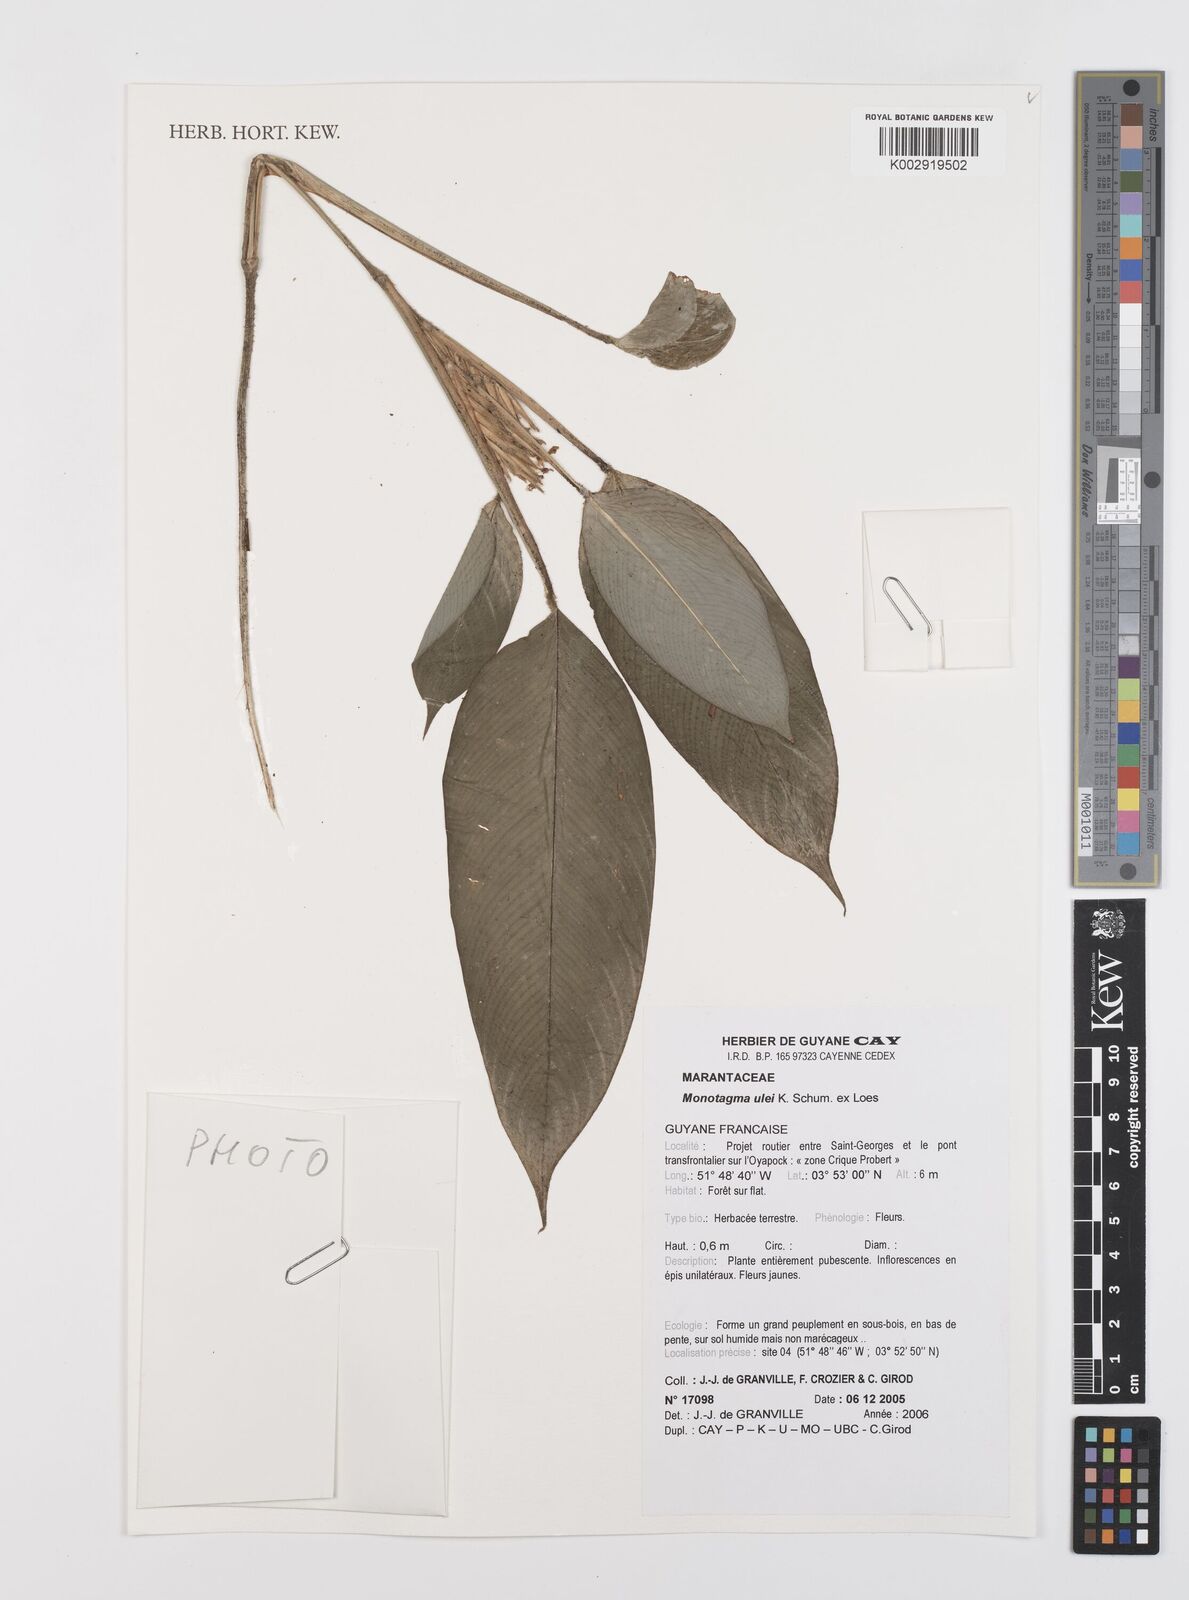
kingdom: Plantae
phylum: Tracheophyta
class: Liliopsida
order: Zingiberales
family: Marantaceae
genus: Monotagma
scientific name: Monotagma ulei
